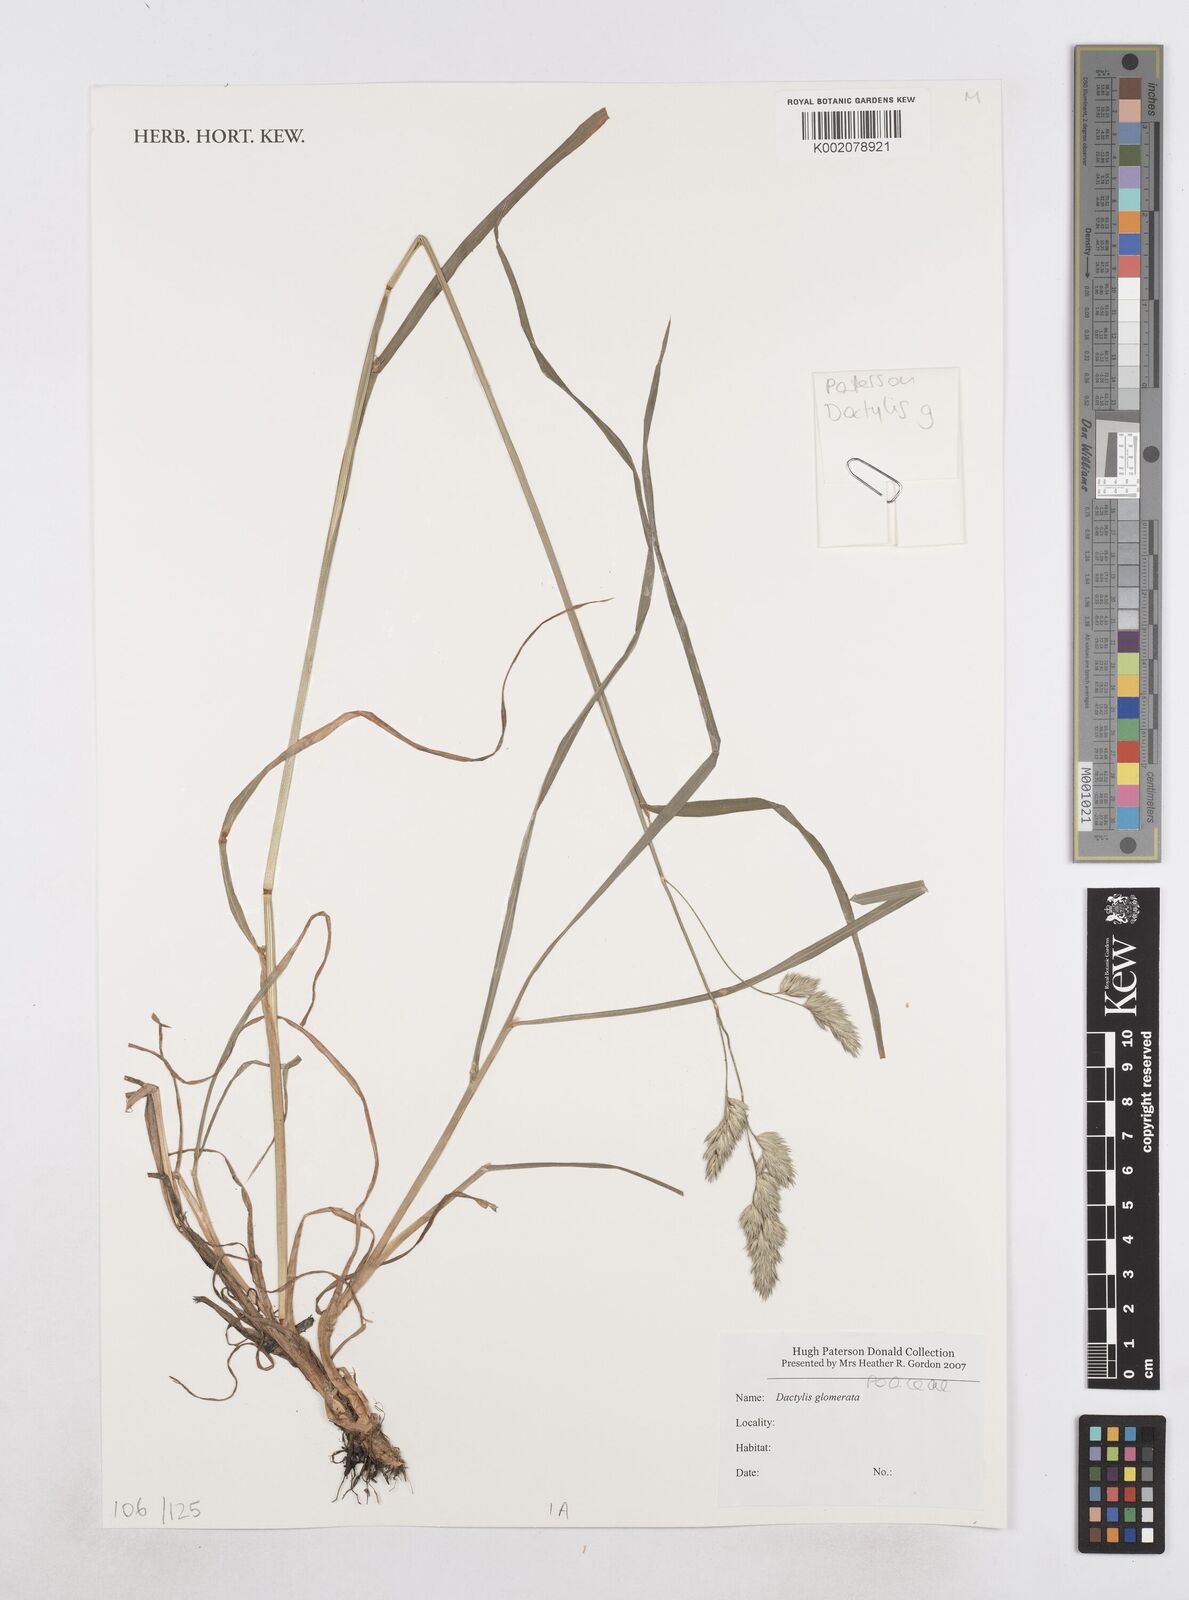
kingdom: Plantae
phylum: Tracheophyta
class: Liliopsida
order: Poales
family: Poaceae
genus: Dactylis
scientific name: Dactylis glomerata
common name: Orchardgrass
